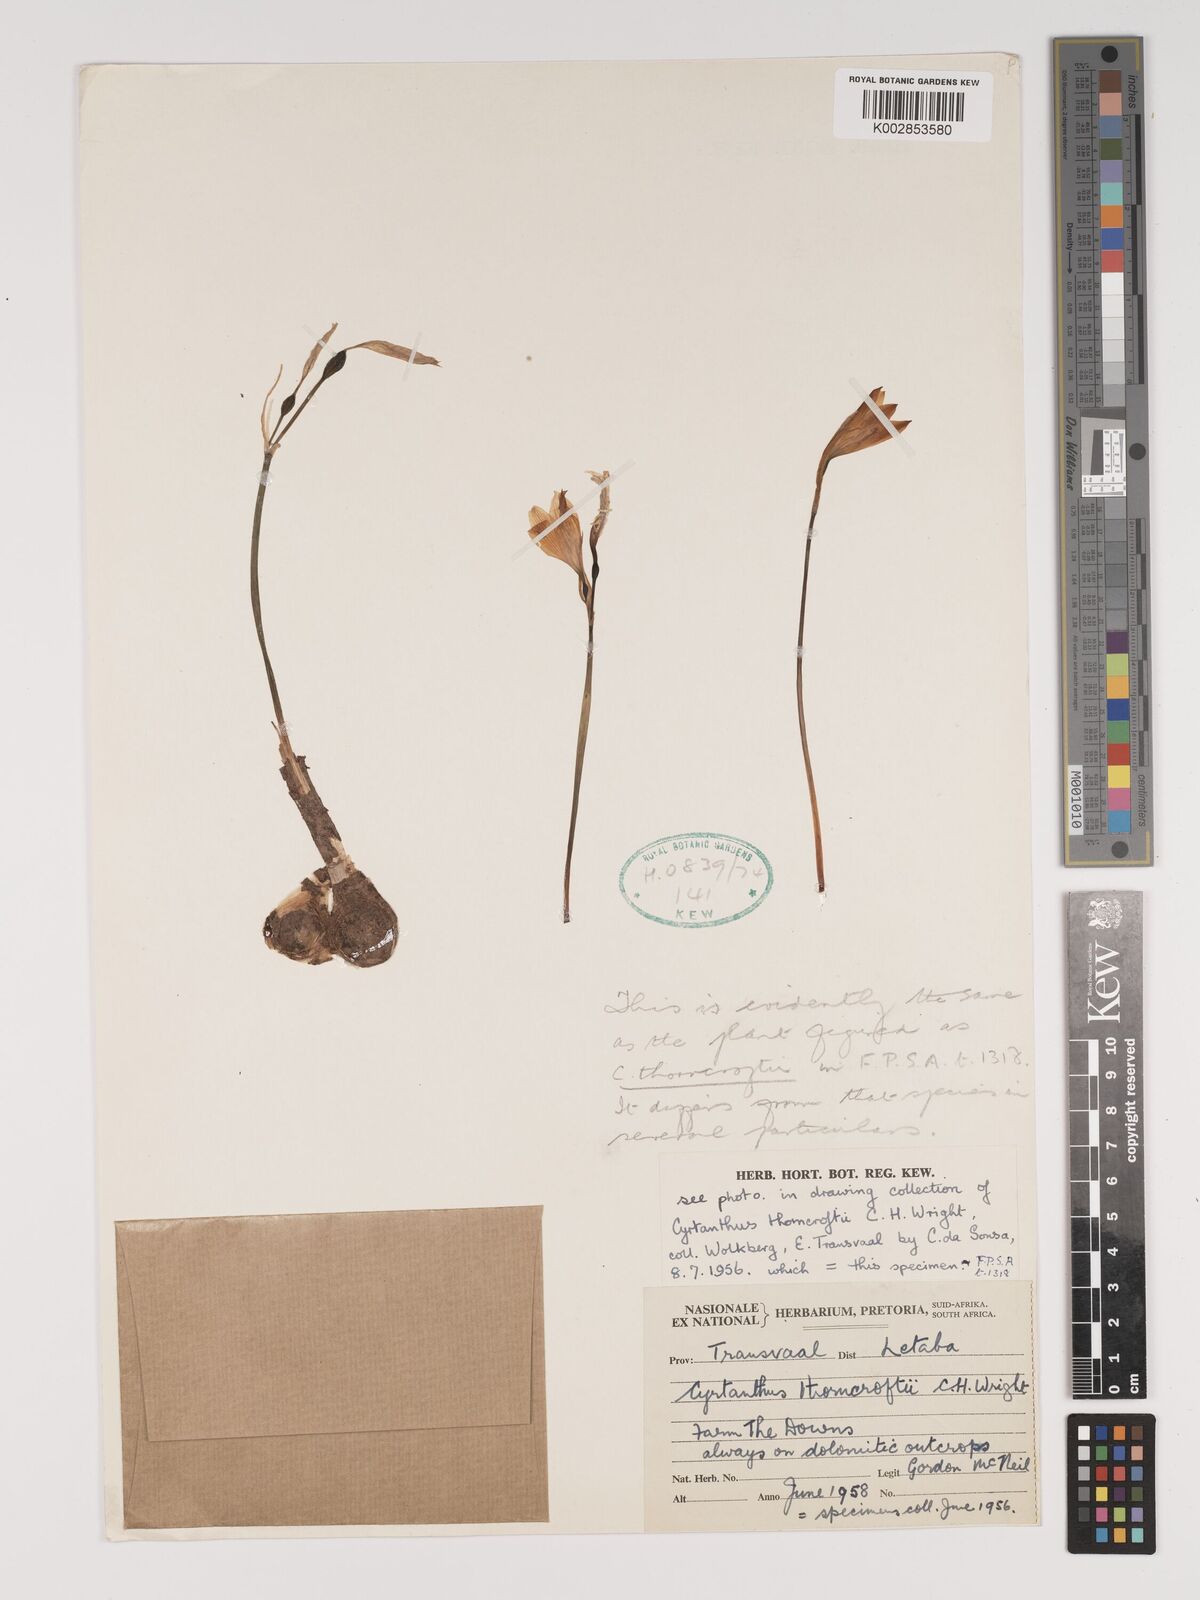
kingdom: Plantae
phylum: Tracheophyta
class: Liliopsida
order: Asparagales
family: Amaryllidaceae
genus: Cyrtanthus
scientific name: Cyrtanthus thorncroftii
